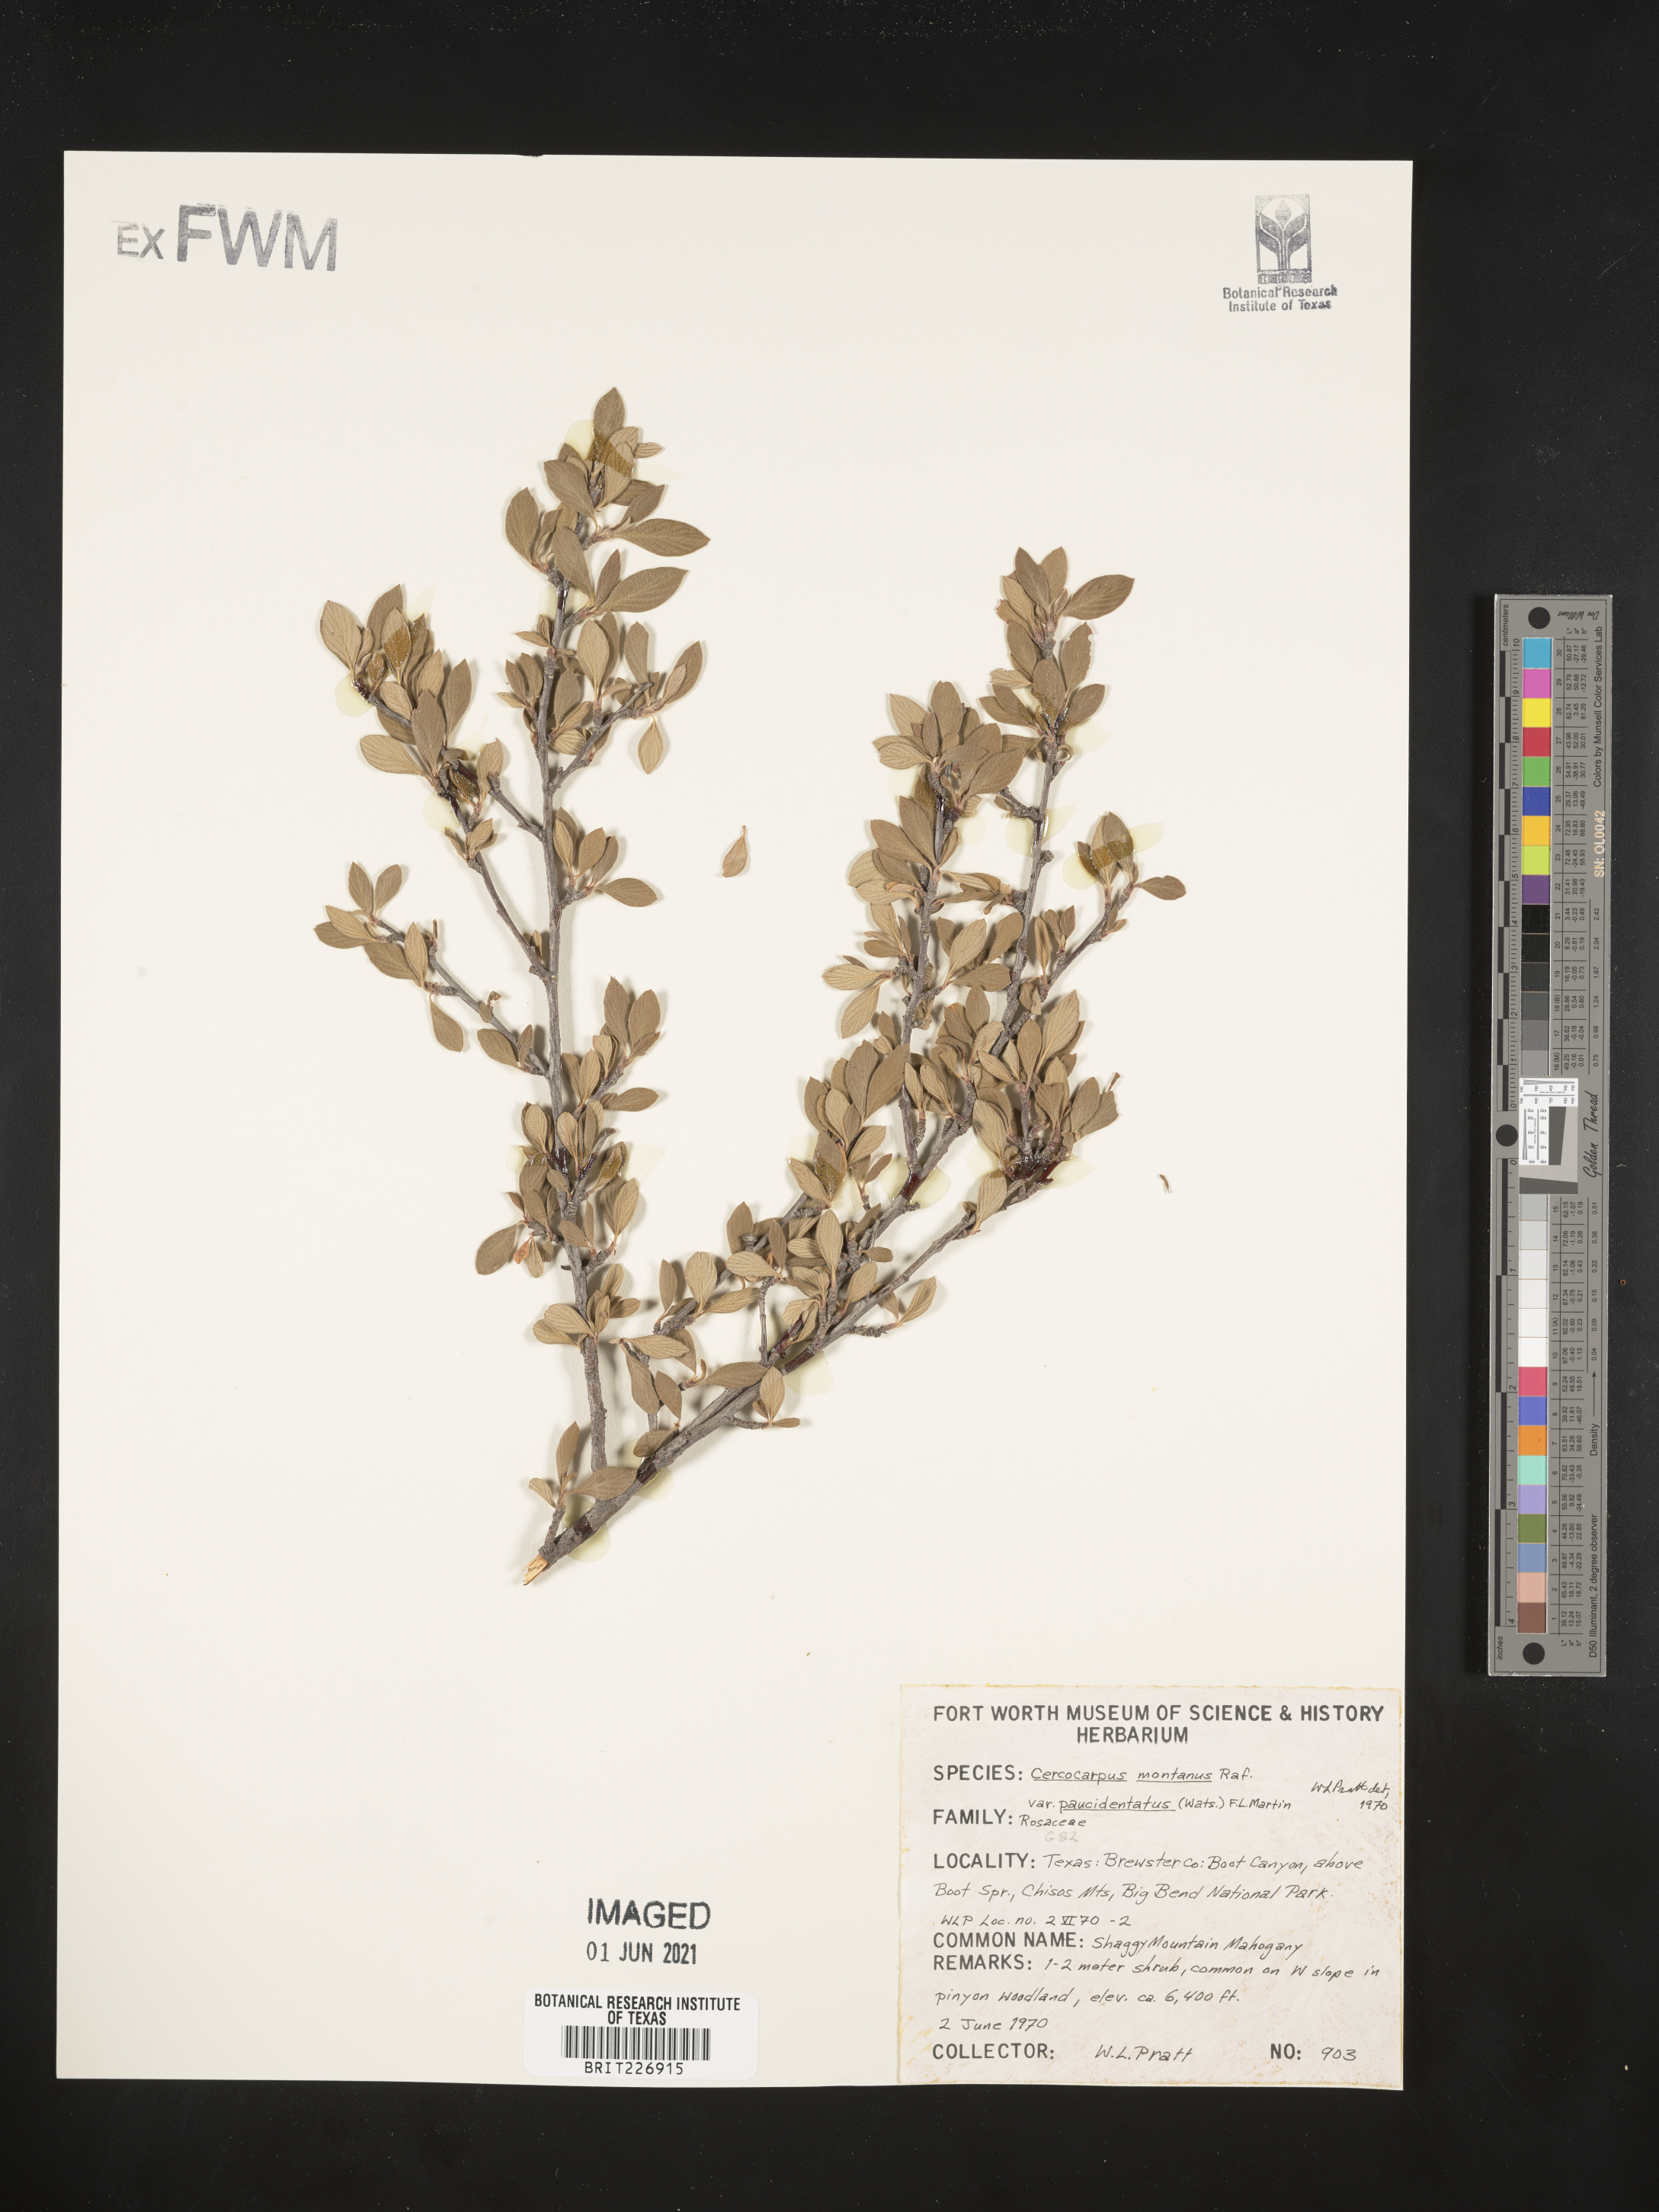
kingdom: Plantae
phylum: Tracheophyta
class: Magnoliopsida
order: Rosales
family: Rosaceae
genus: Cercocarpus
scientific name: Cercocarpus breviflorus
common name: Wright's mountain-mahogany
